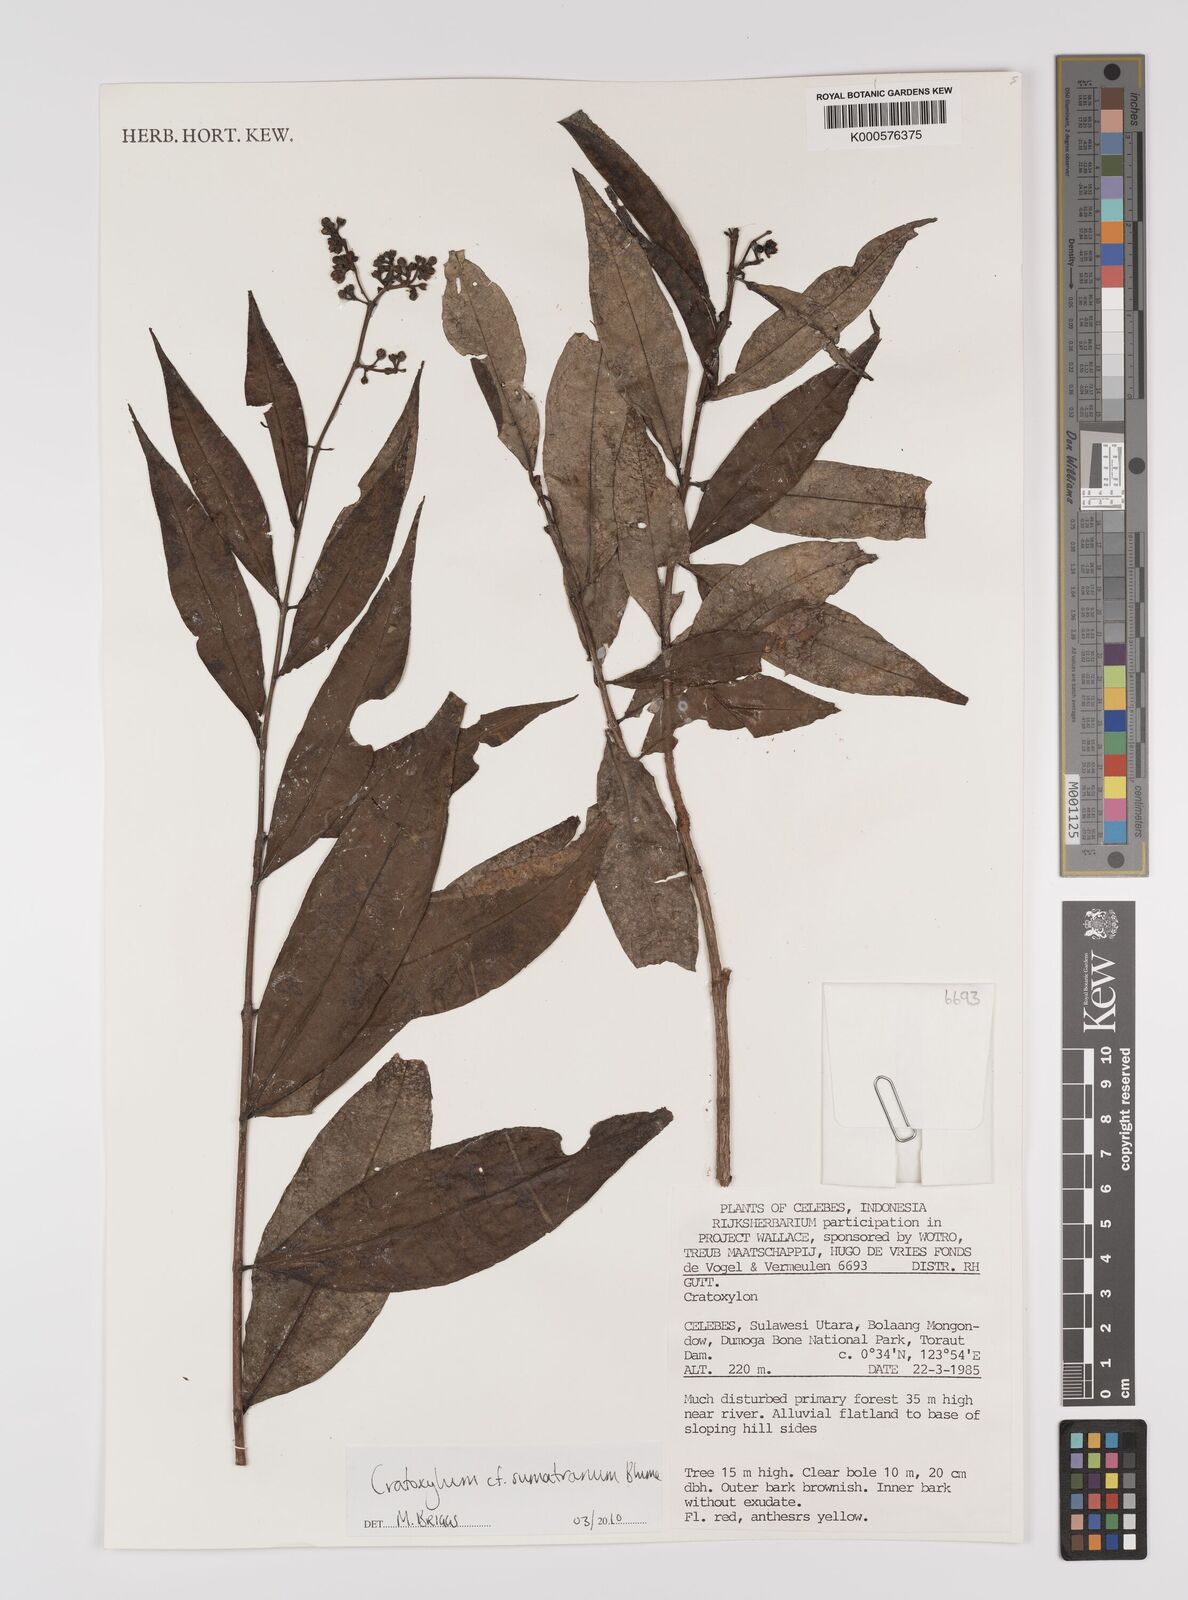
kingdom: Plantae
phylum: Tracheophyta
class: Magnoliopsida
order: Malpighiales
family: Hypericaceae
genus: Cratoxylum
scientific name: Cratoxylum sumatranum
